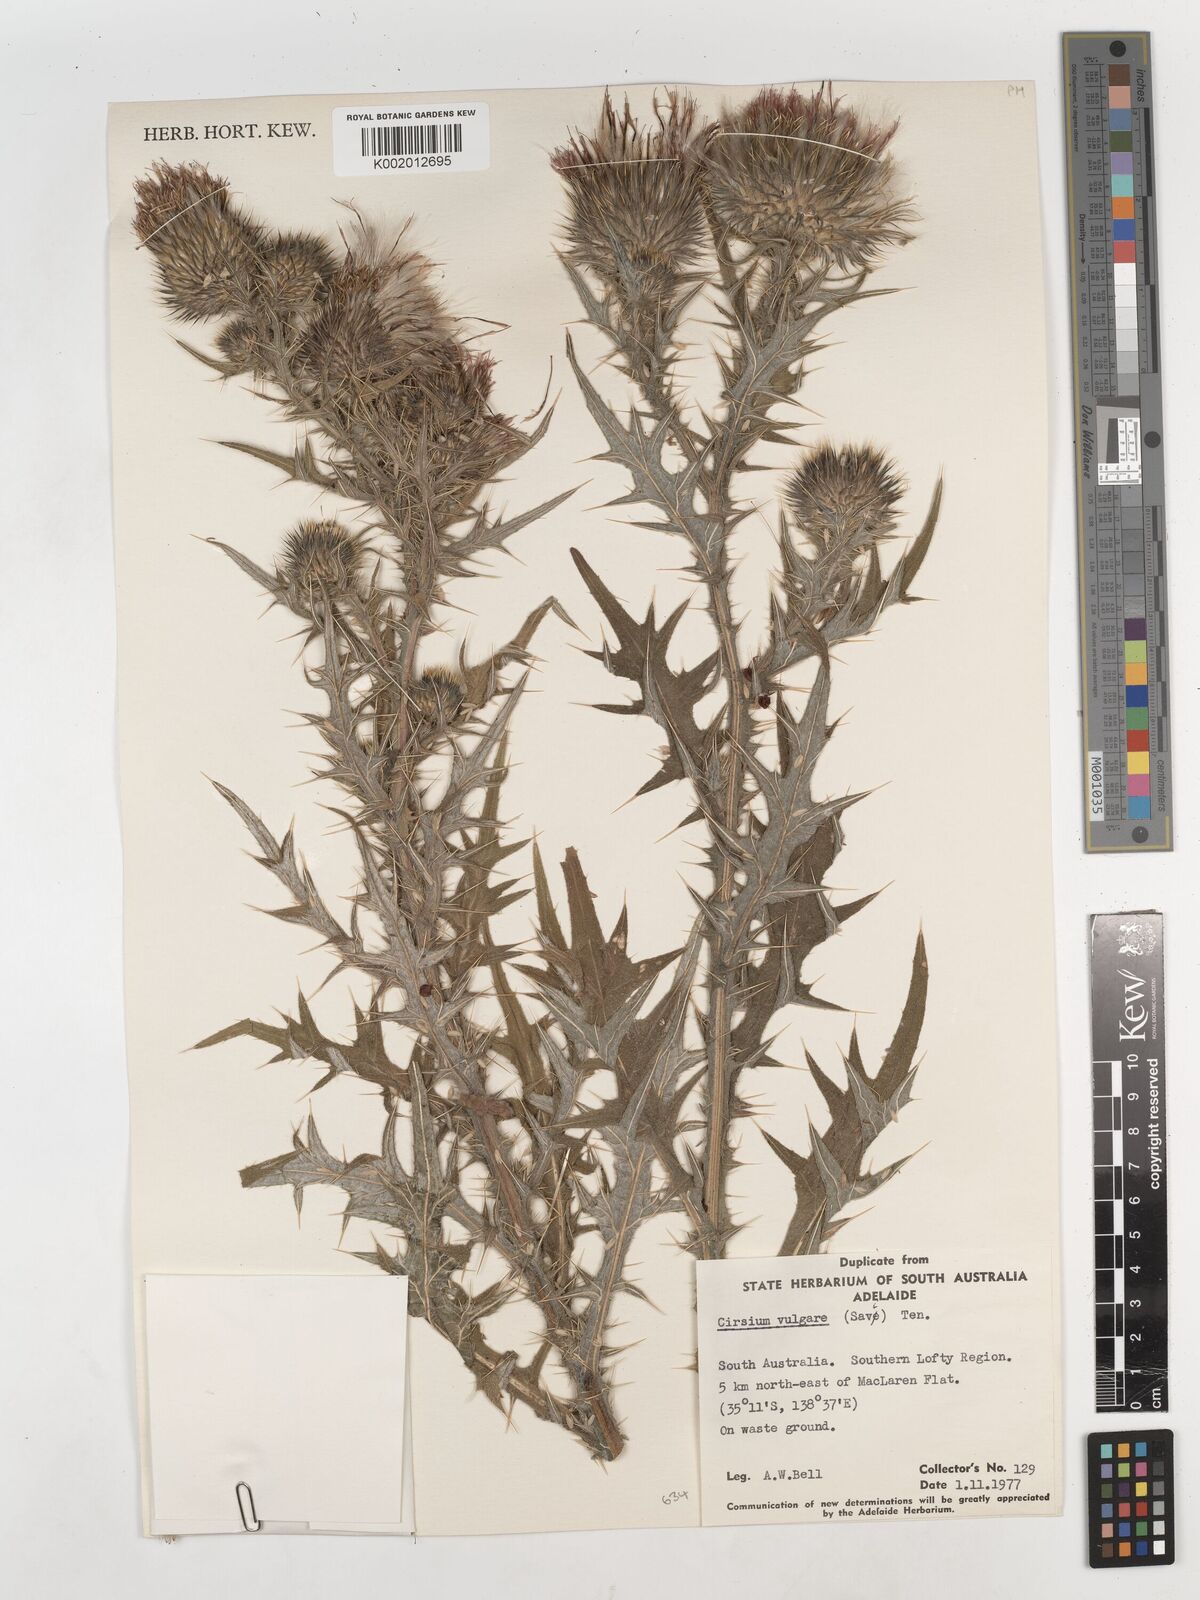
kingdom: Plantae
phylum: Tracheophyta
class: Magnoliopsida
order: Asterales
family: Asteraceae
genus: Cirsium
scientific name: Cirsium vulgare
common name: Bull thistle
